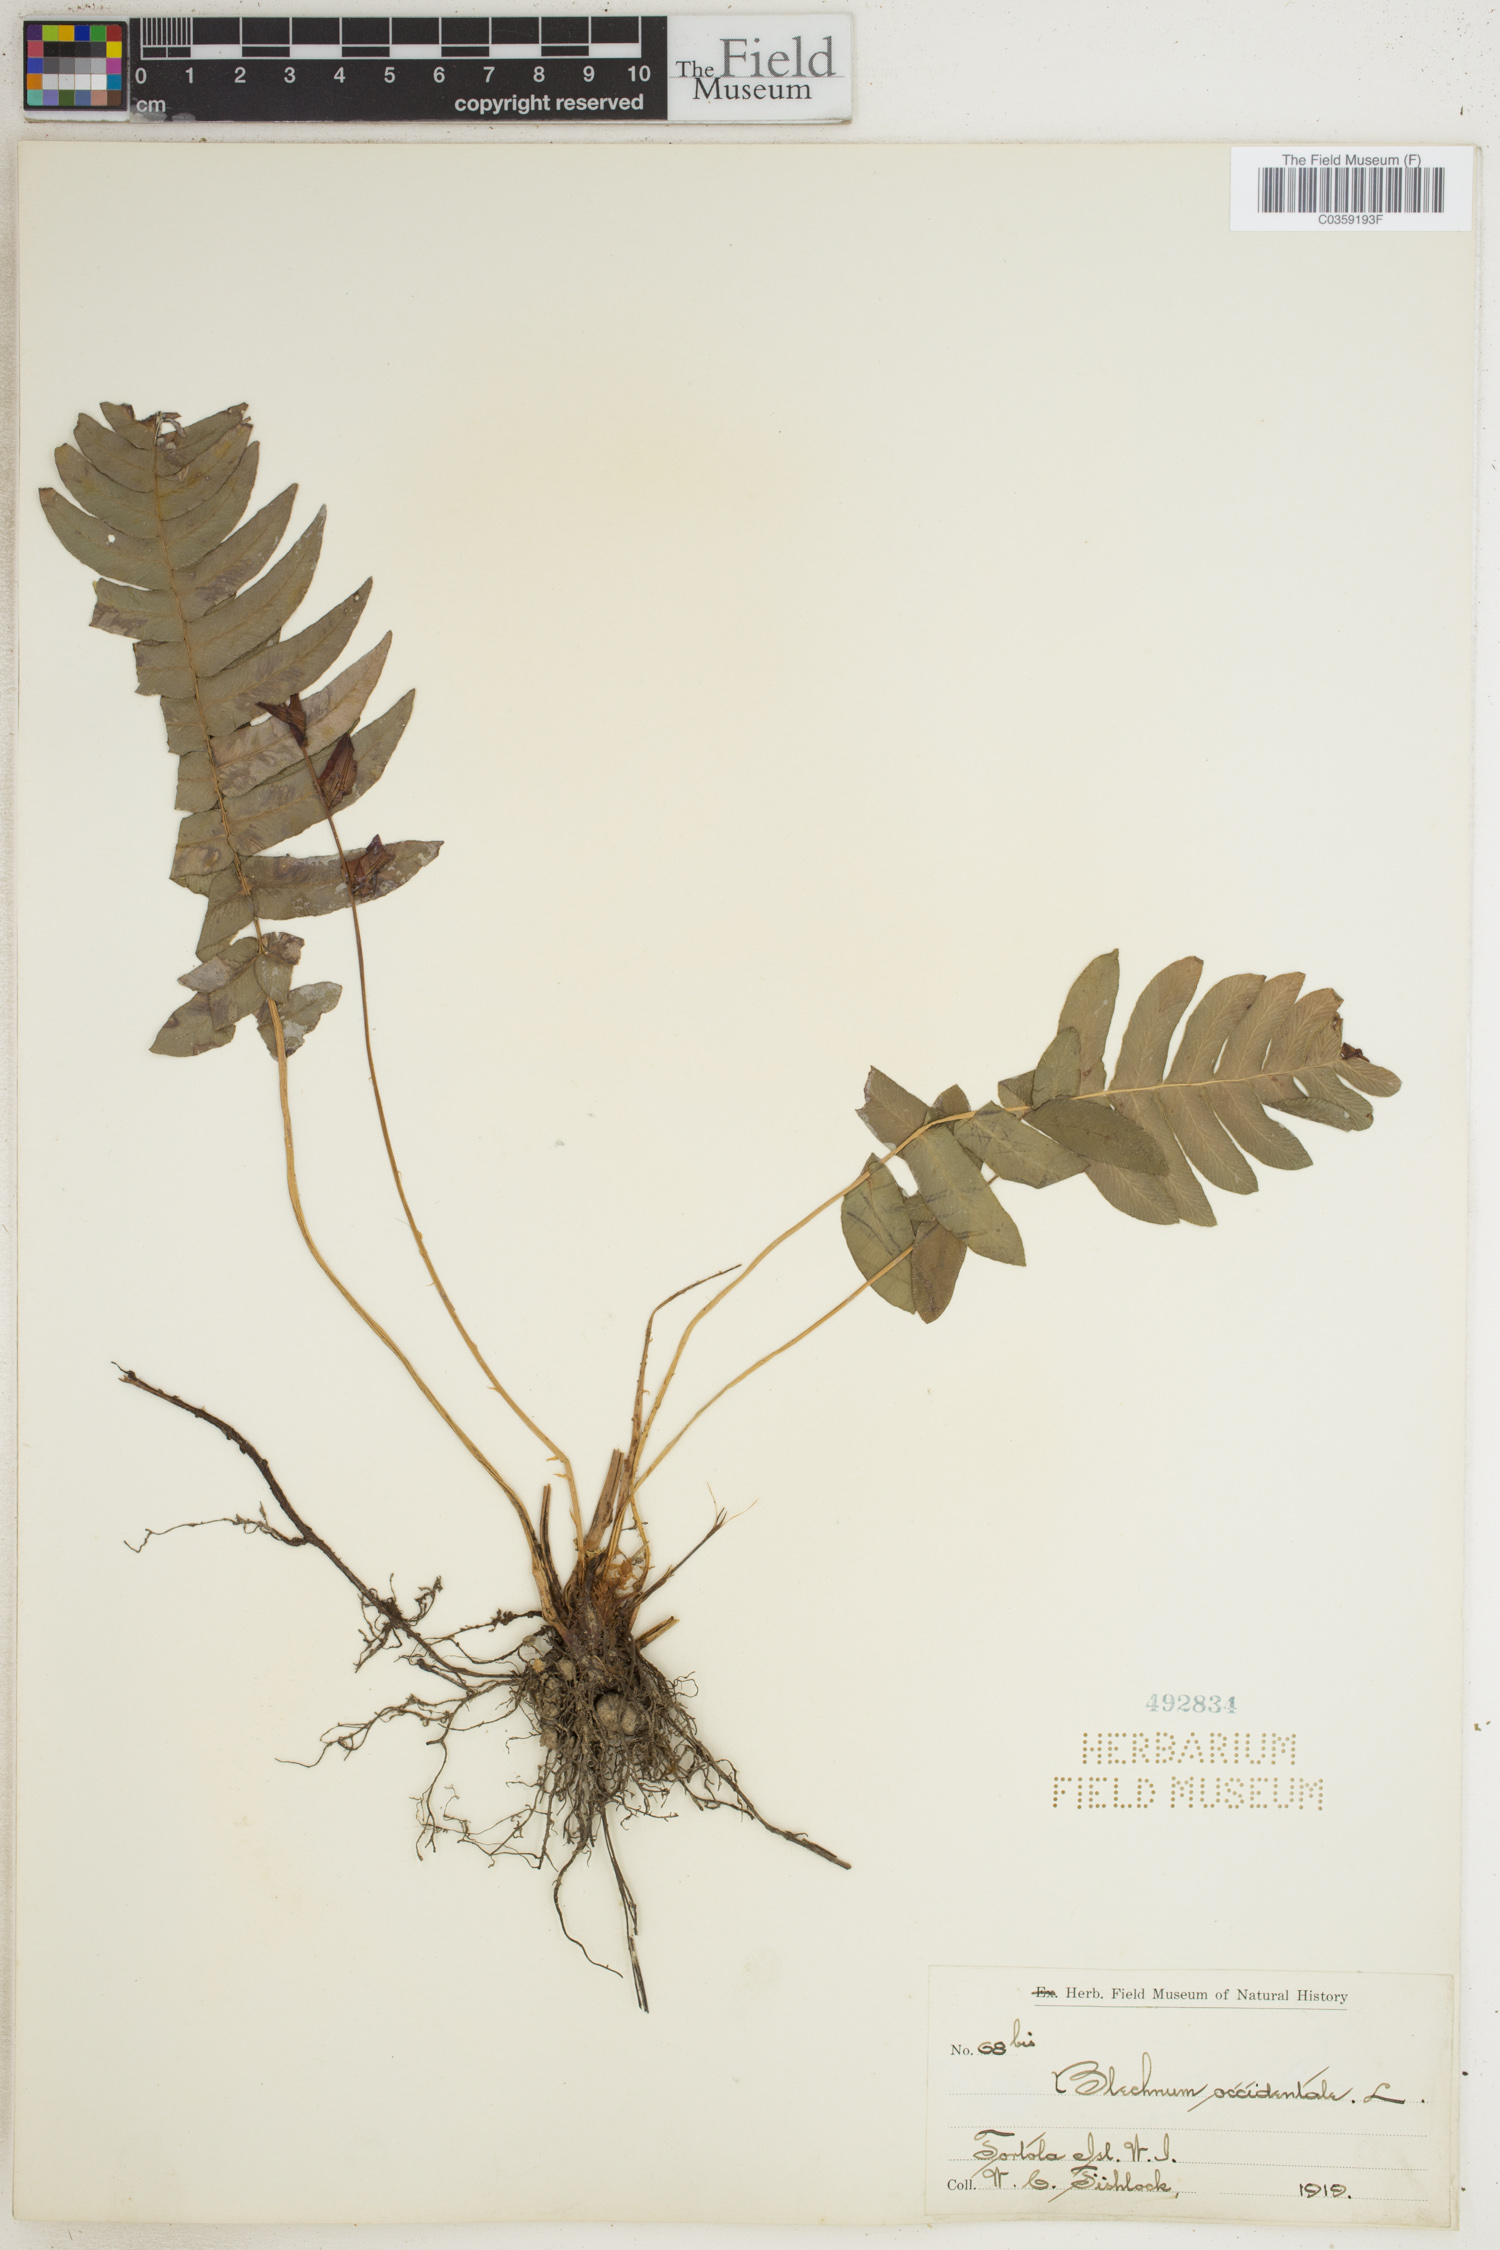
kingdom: Plantae
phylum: Tracheophyta
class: Polypodiopsida
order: Polypodiales
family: Blechnaceae
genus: Blechnum
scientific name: Blechnum occidentale
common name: Hammock fern
